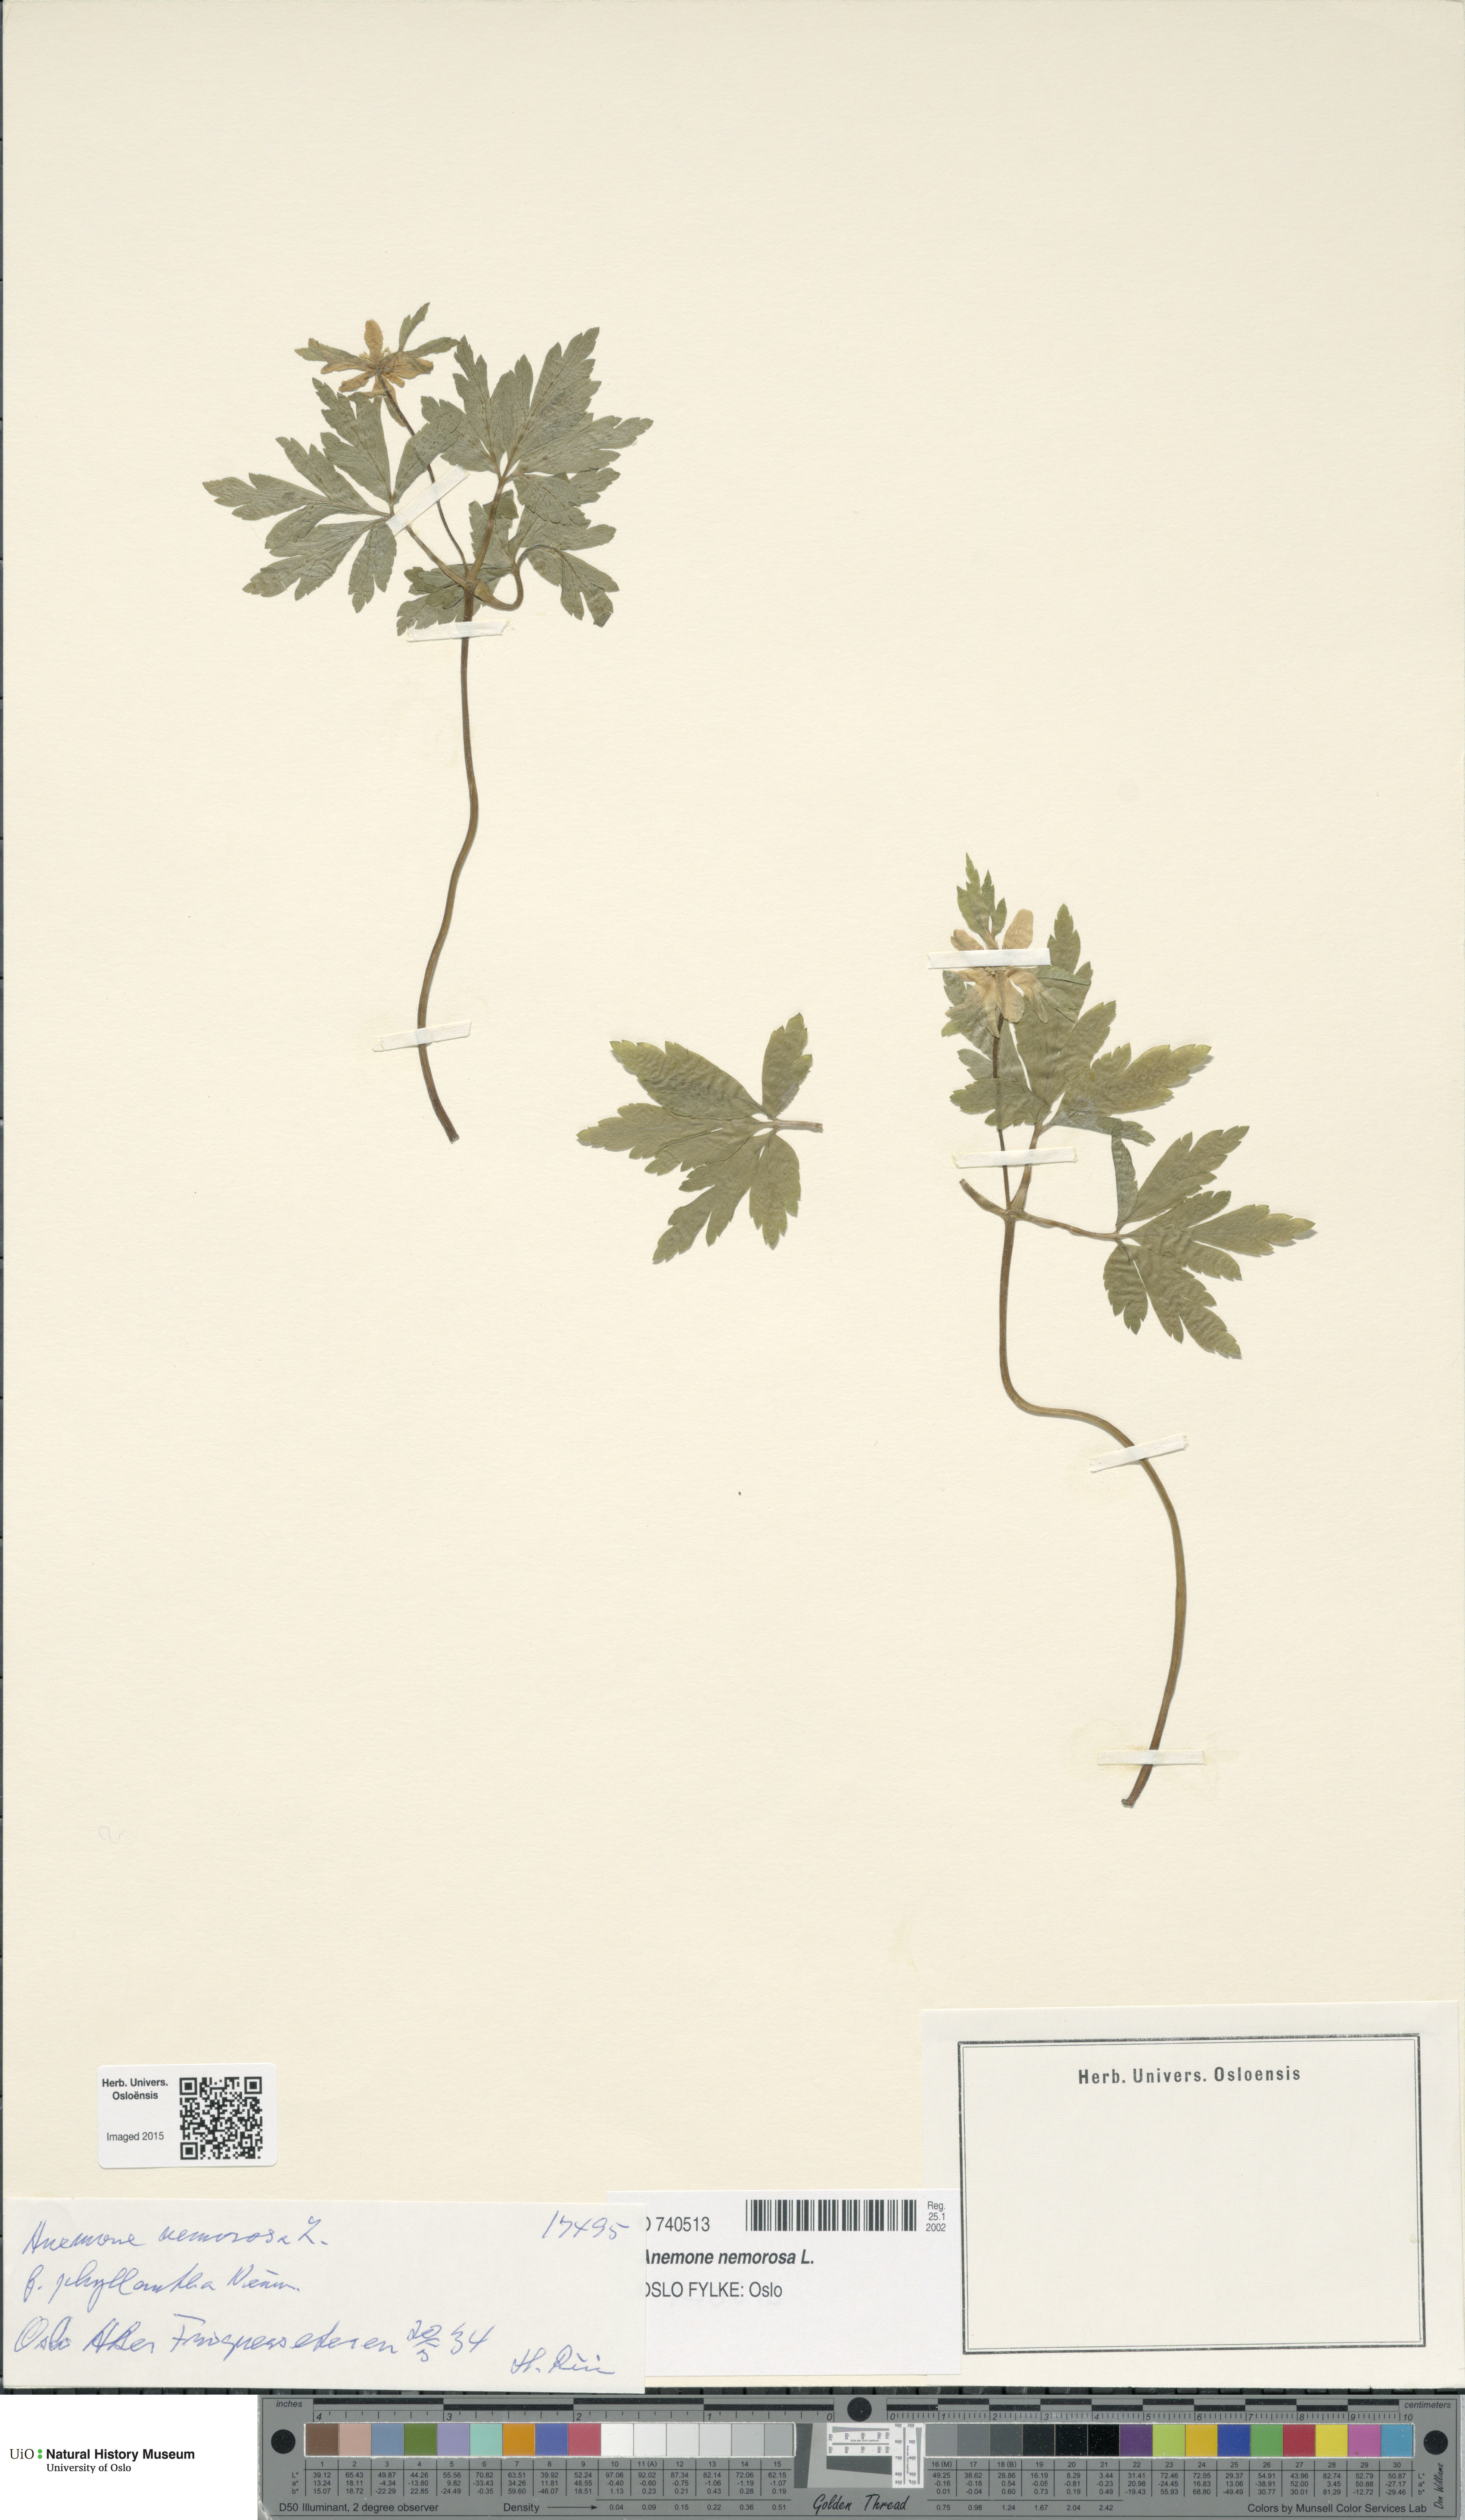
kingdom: Plantae
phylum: Tracheophyta
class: Magnoliopsida
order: Ranunculales
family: Ranunculaceae
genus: Anemone
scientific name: Anemone nemorosa
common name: Wood anemone
